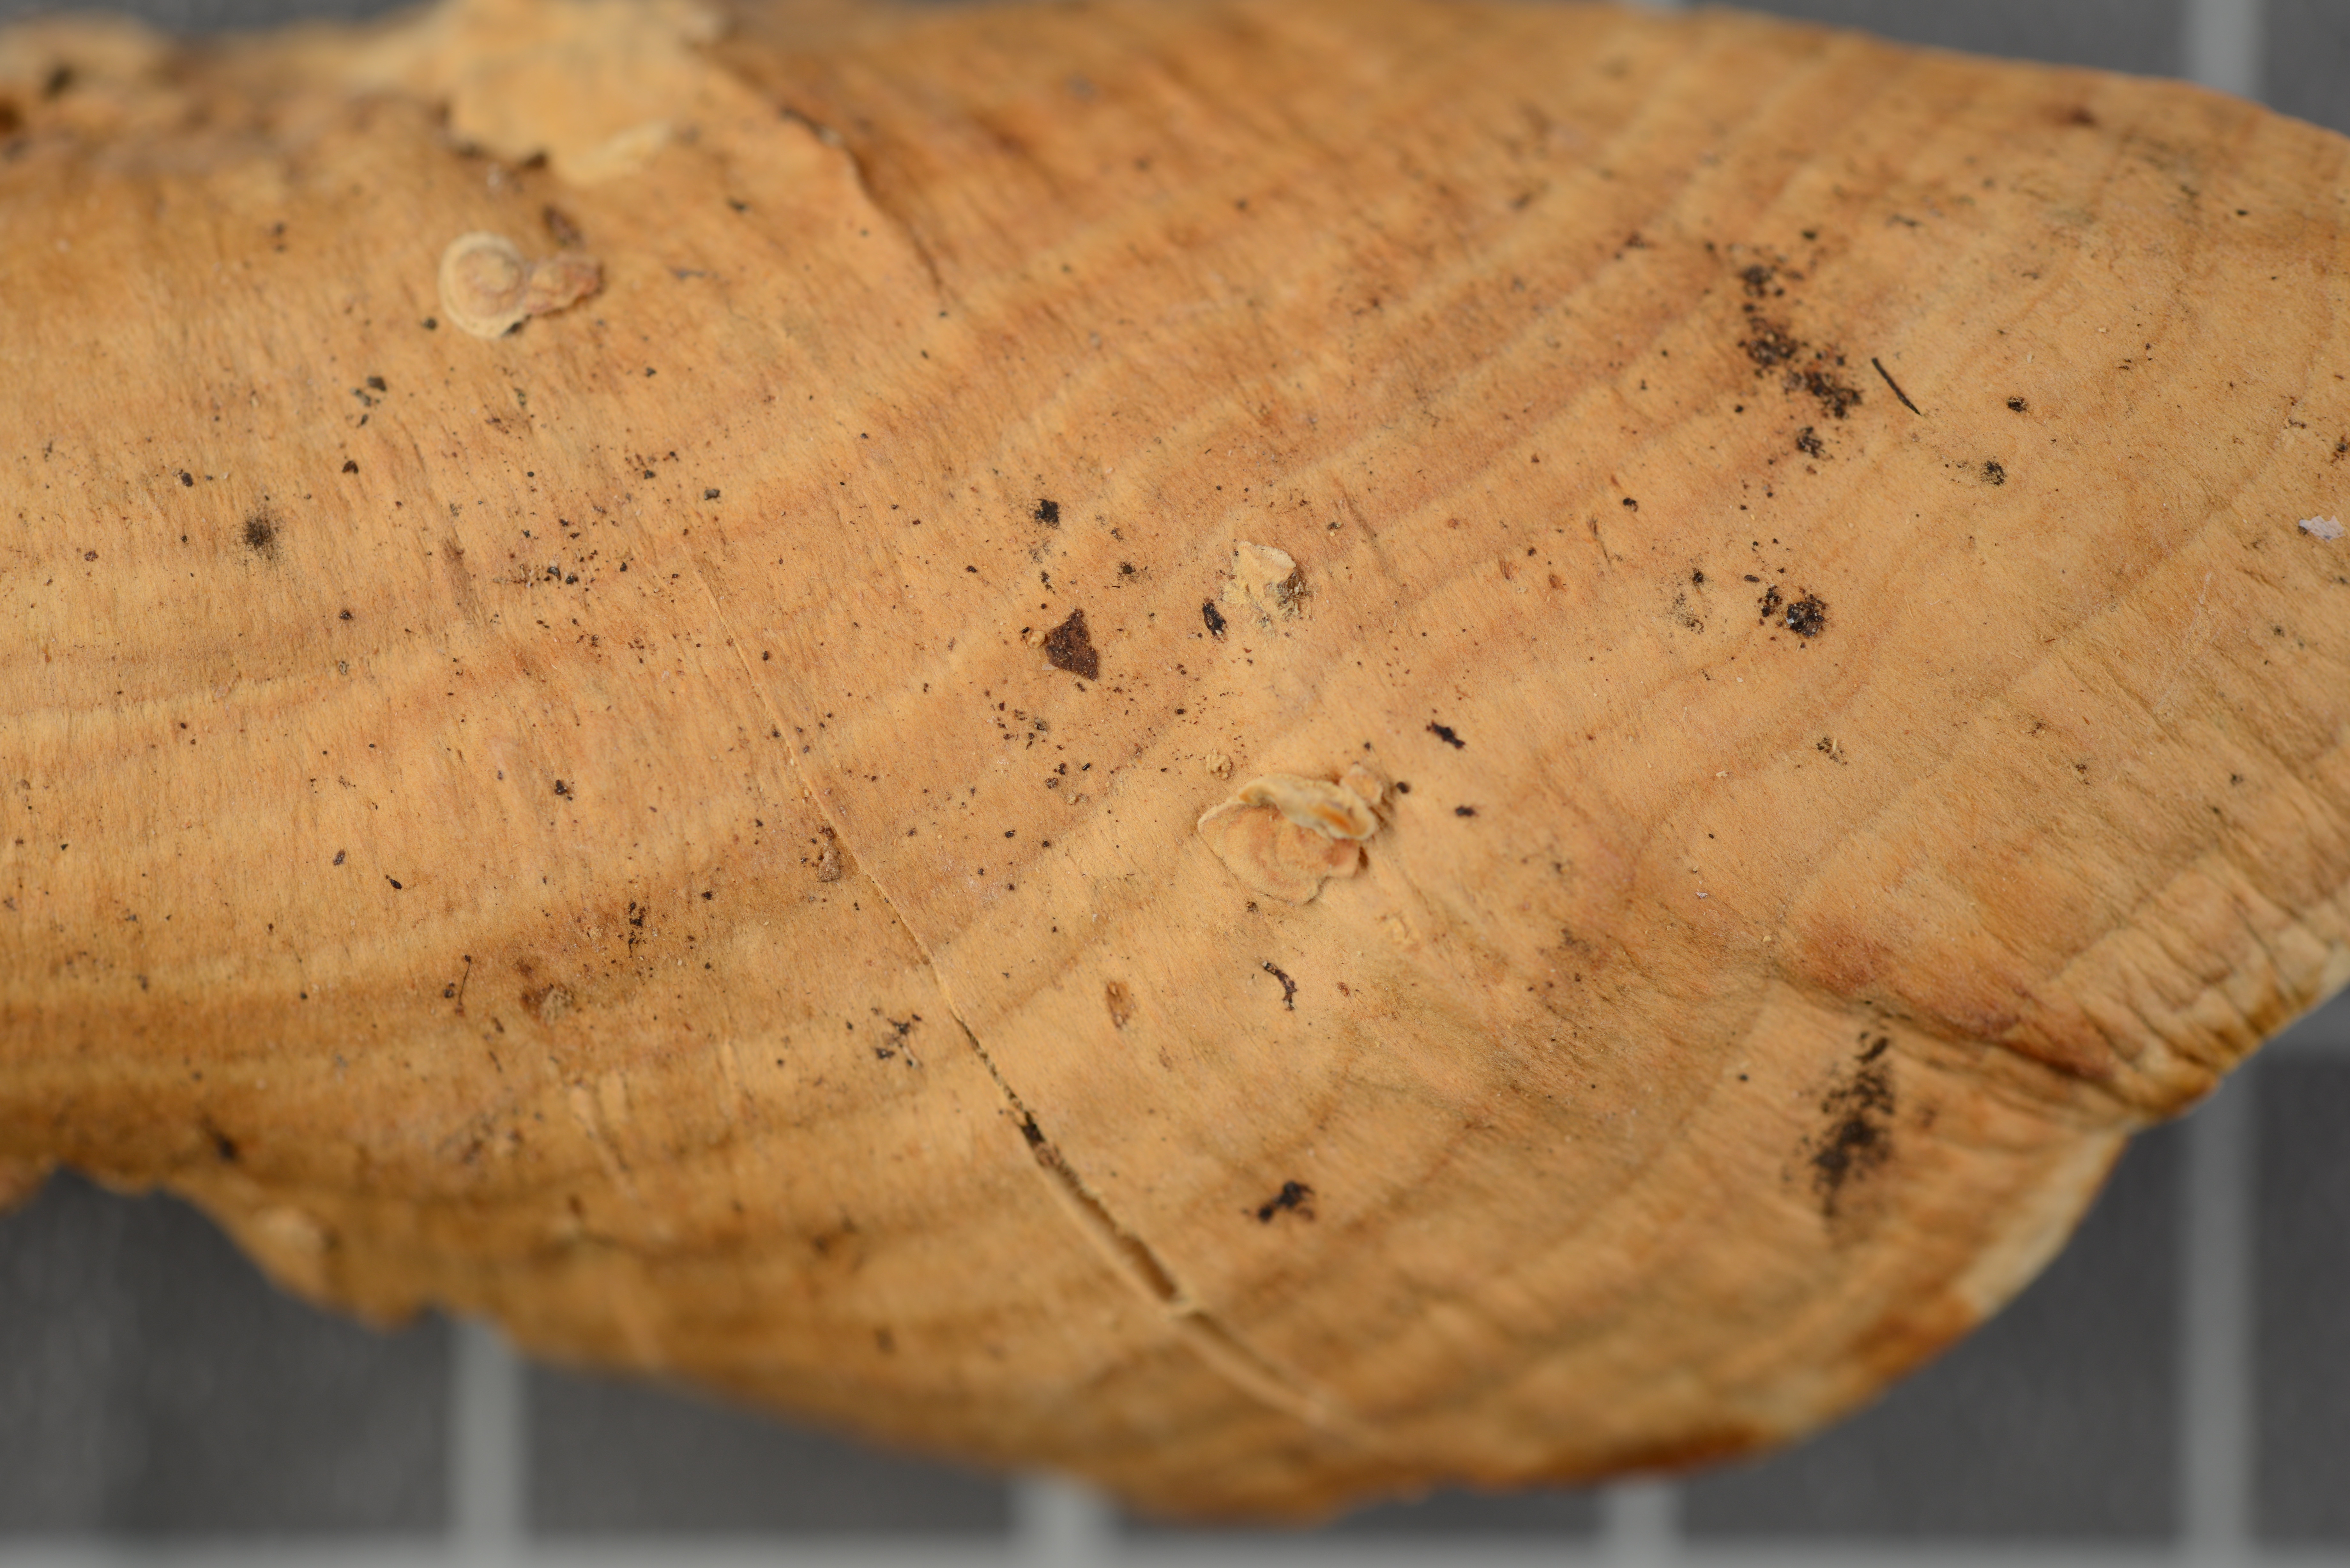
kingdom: Fungi
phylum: Basidiomycota
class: Agaricomycetes
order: Polyporales
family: Meripilaceae
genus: Rigidoporus
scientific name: Rigidoporus aurantiacus
